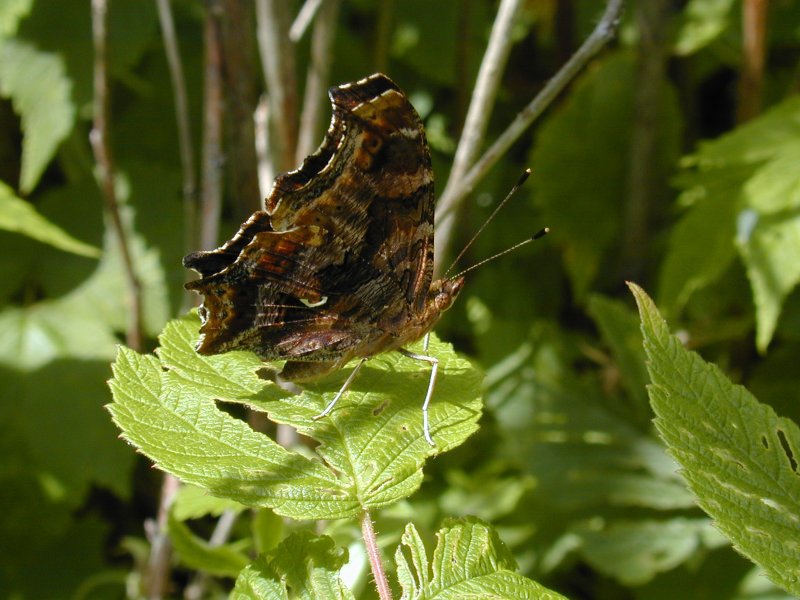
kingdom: Animalia
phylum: Arthropoda
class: Insecta
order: Lepidoptera
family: Nymphalidae
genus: Polygonia
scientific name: Polygonia comma
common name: Eastern Comma
